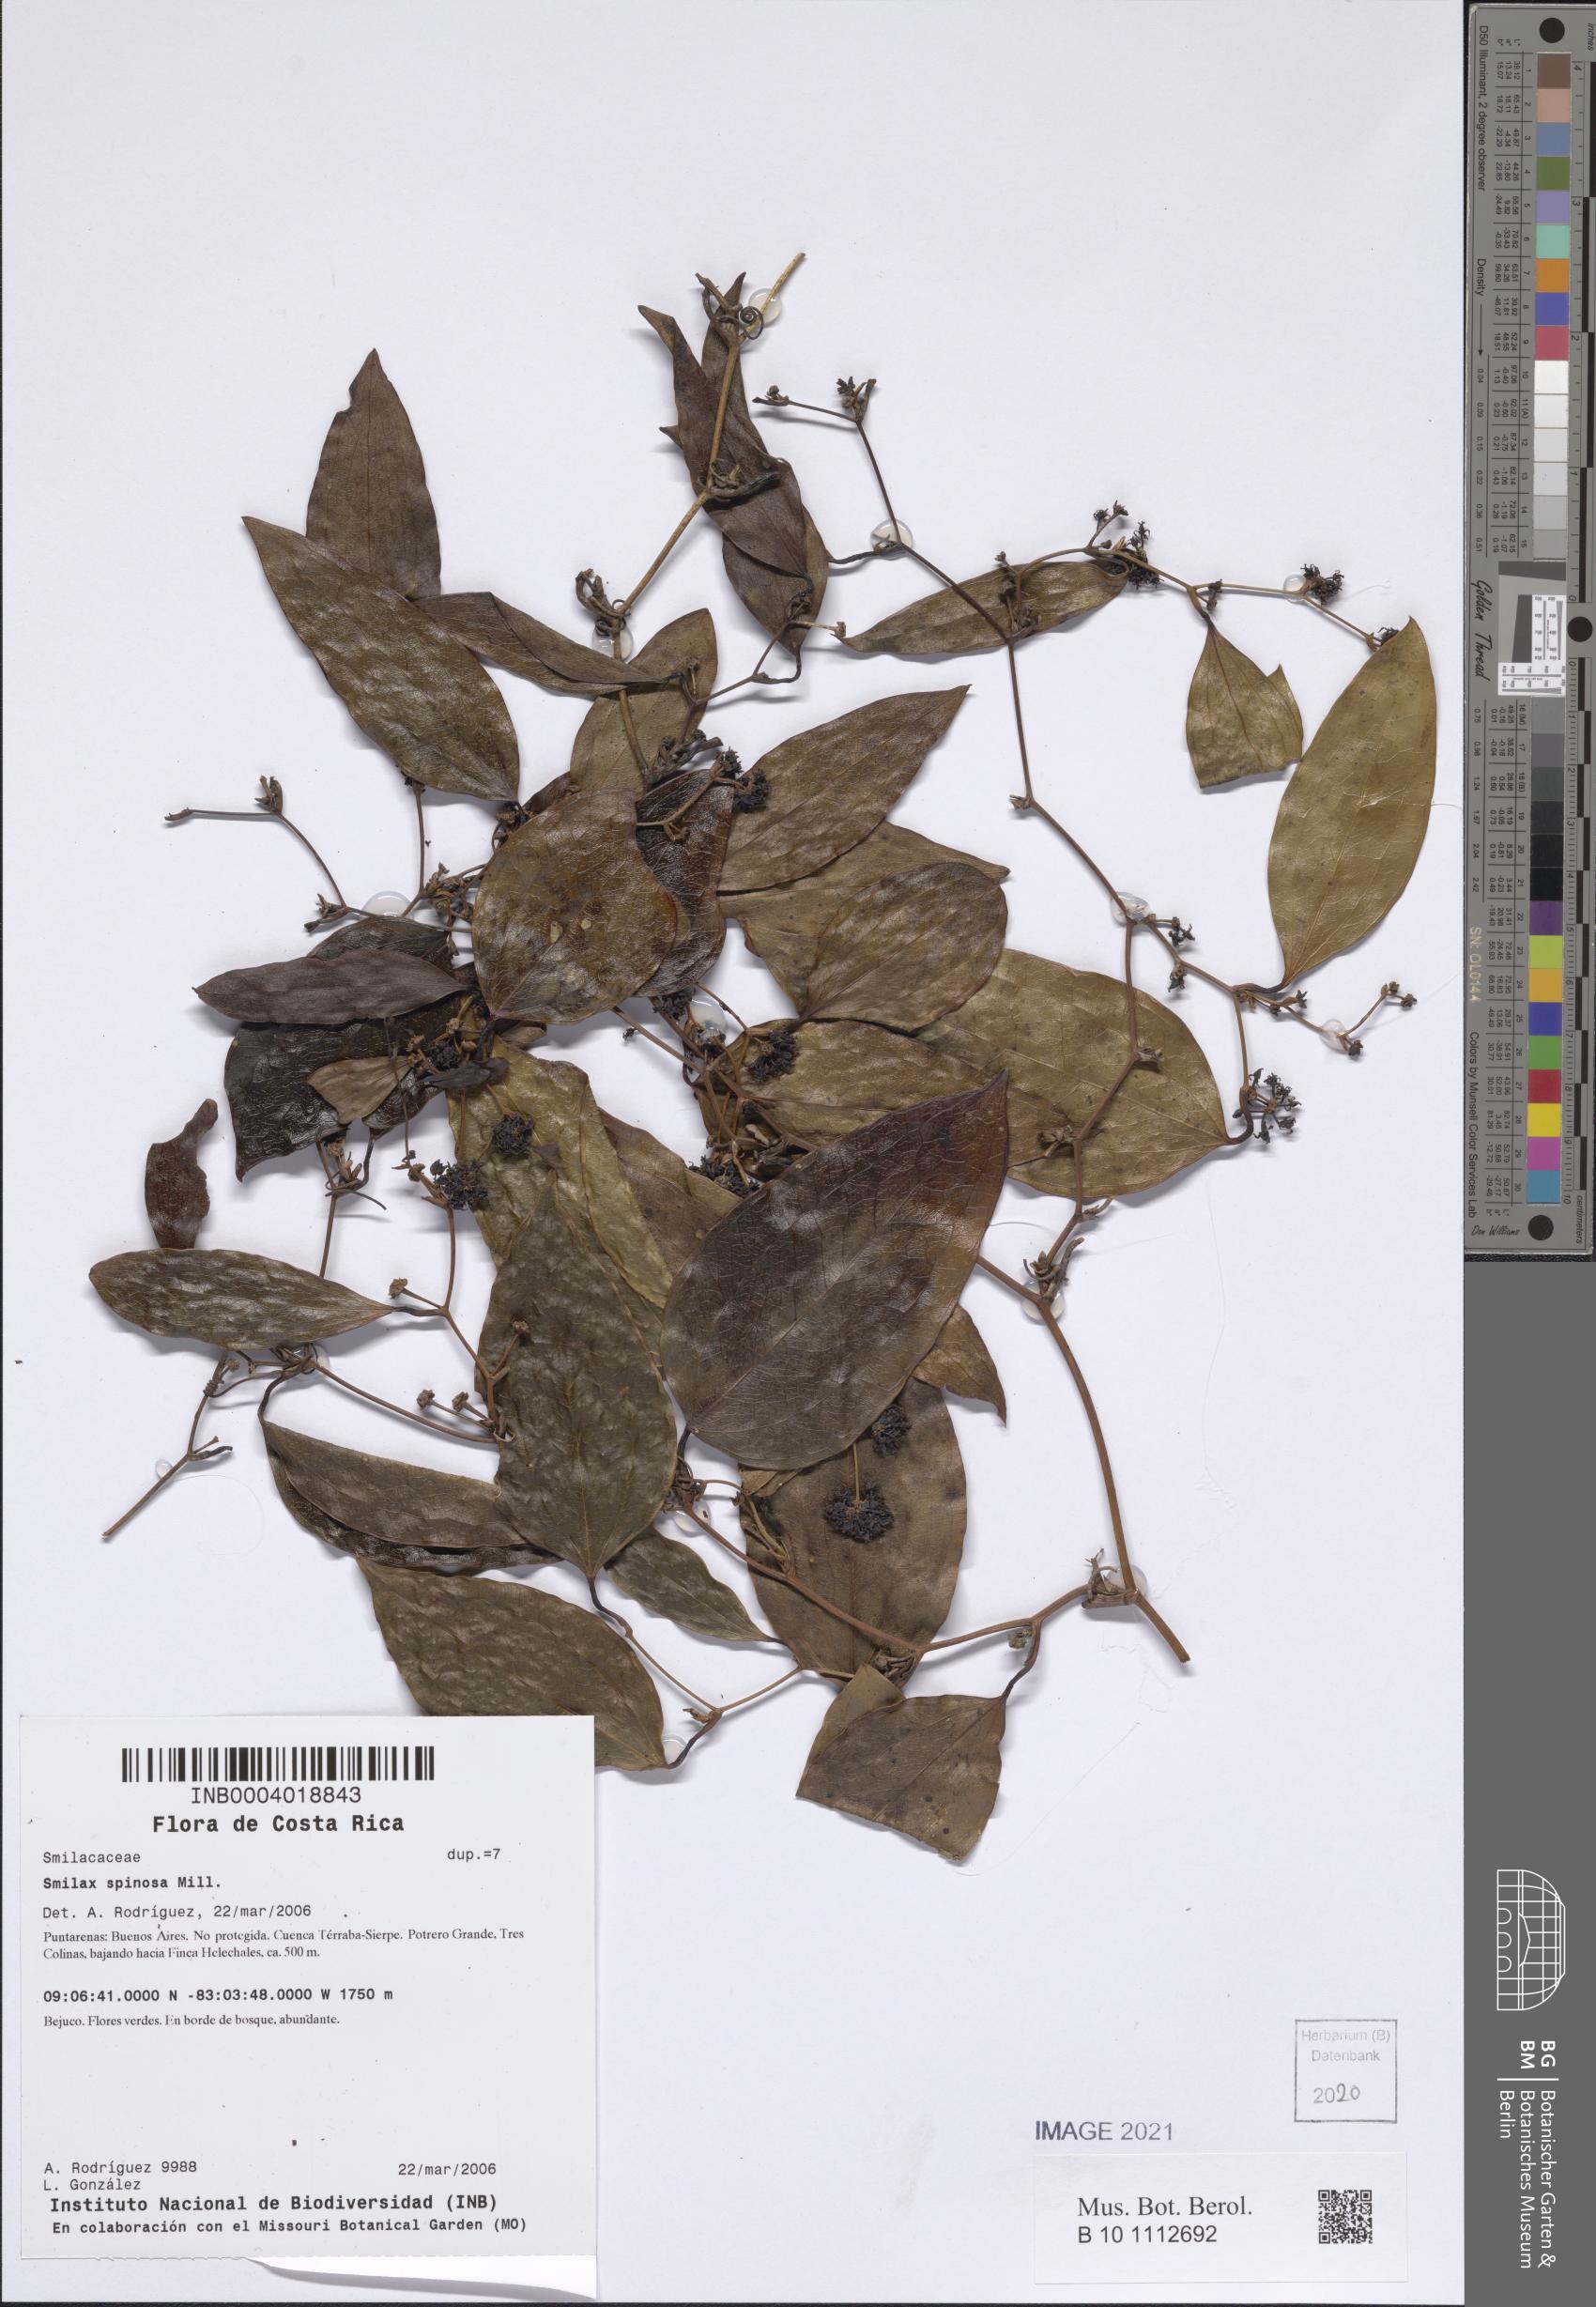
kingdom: Plantae
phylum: Tracheophyta
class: Liliopsida
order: Liliales
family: Smilacaceae
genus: Smilax
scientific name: Smilax spinosa
